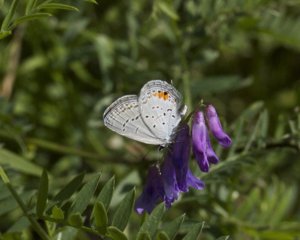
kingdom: Animalia
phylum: Arthropoda
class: Insecta
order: Lepidoptera
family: Lycaenidae
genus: Elkalyce
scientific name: Elkalyce comyntas
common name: Eastern Tailed-Blue
